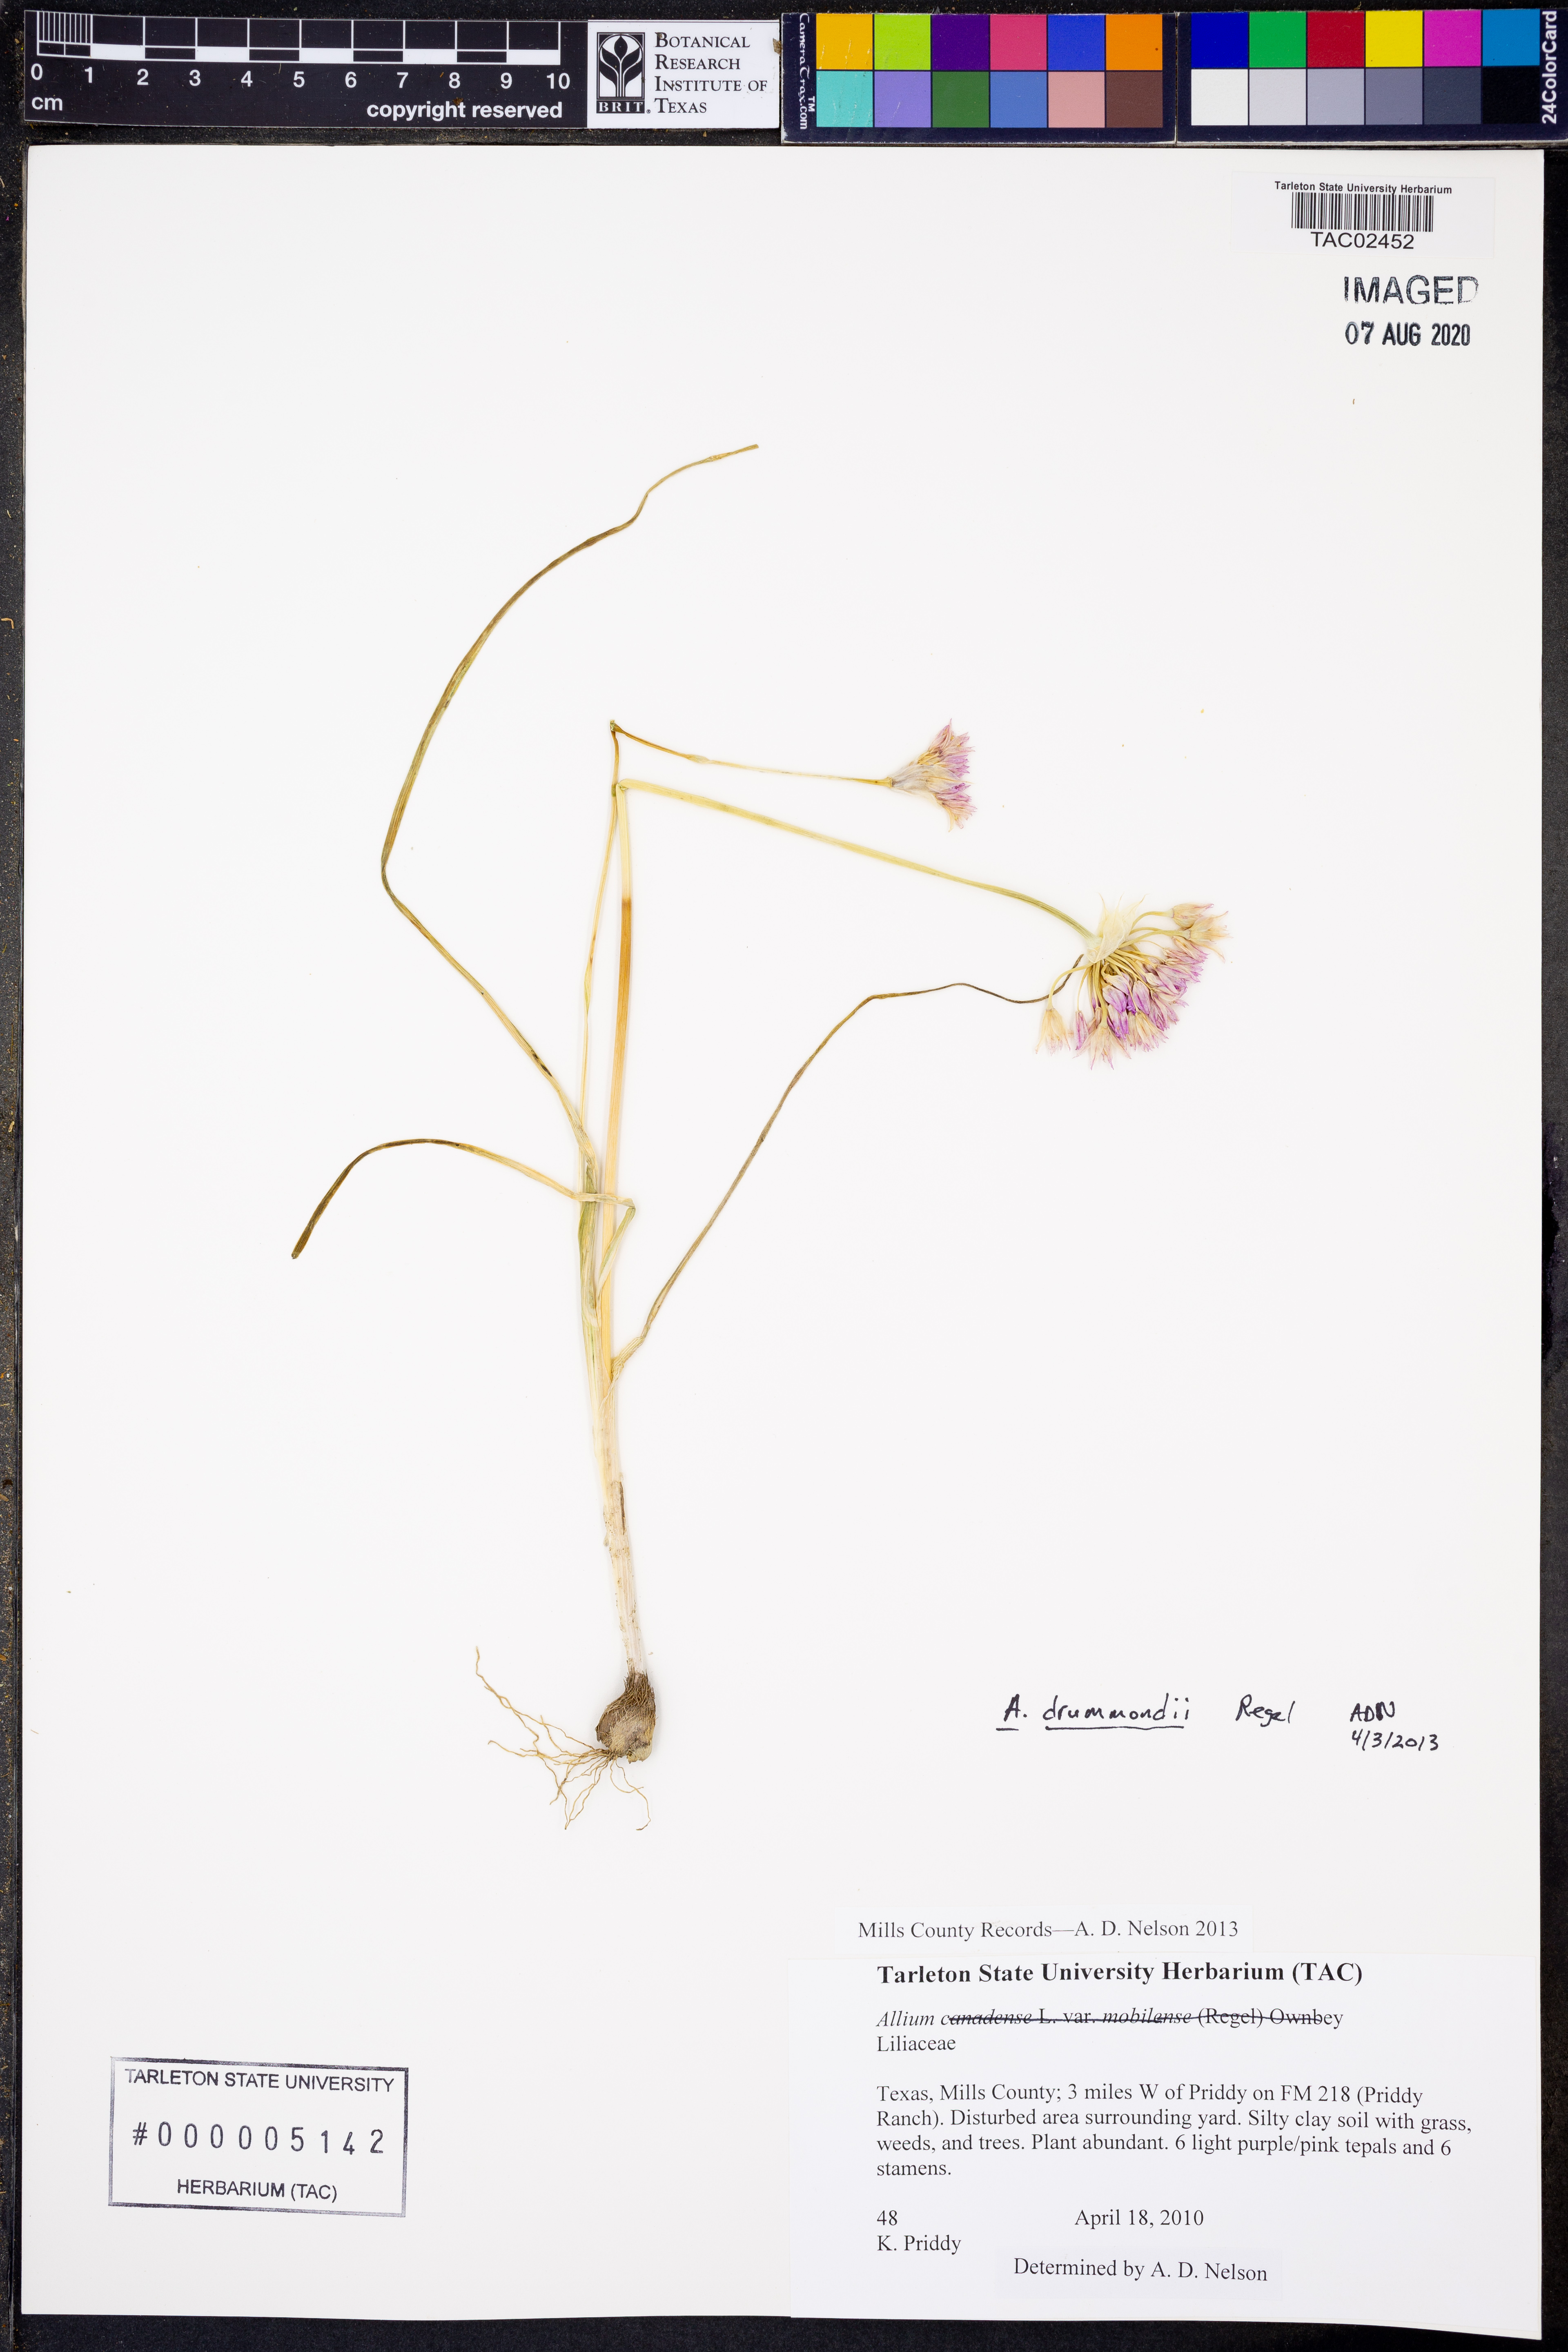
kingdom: Plantae
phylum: Tracheophyta
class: Liliopsida
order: Asparagales
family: Amaryllidaceae
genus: Allium
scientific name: Allium drummondii
